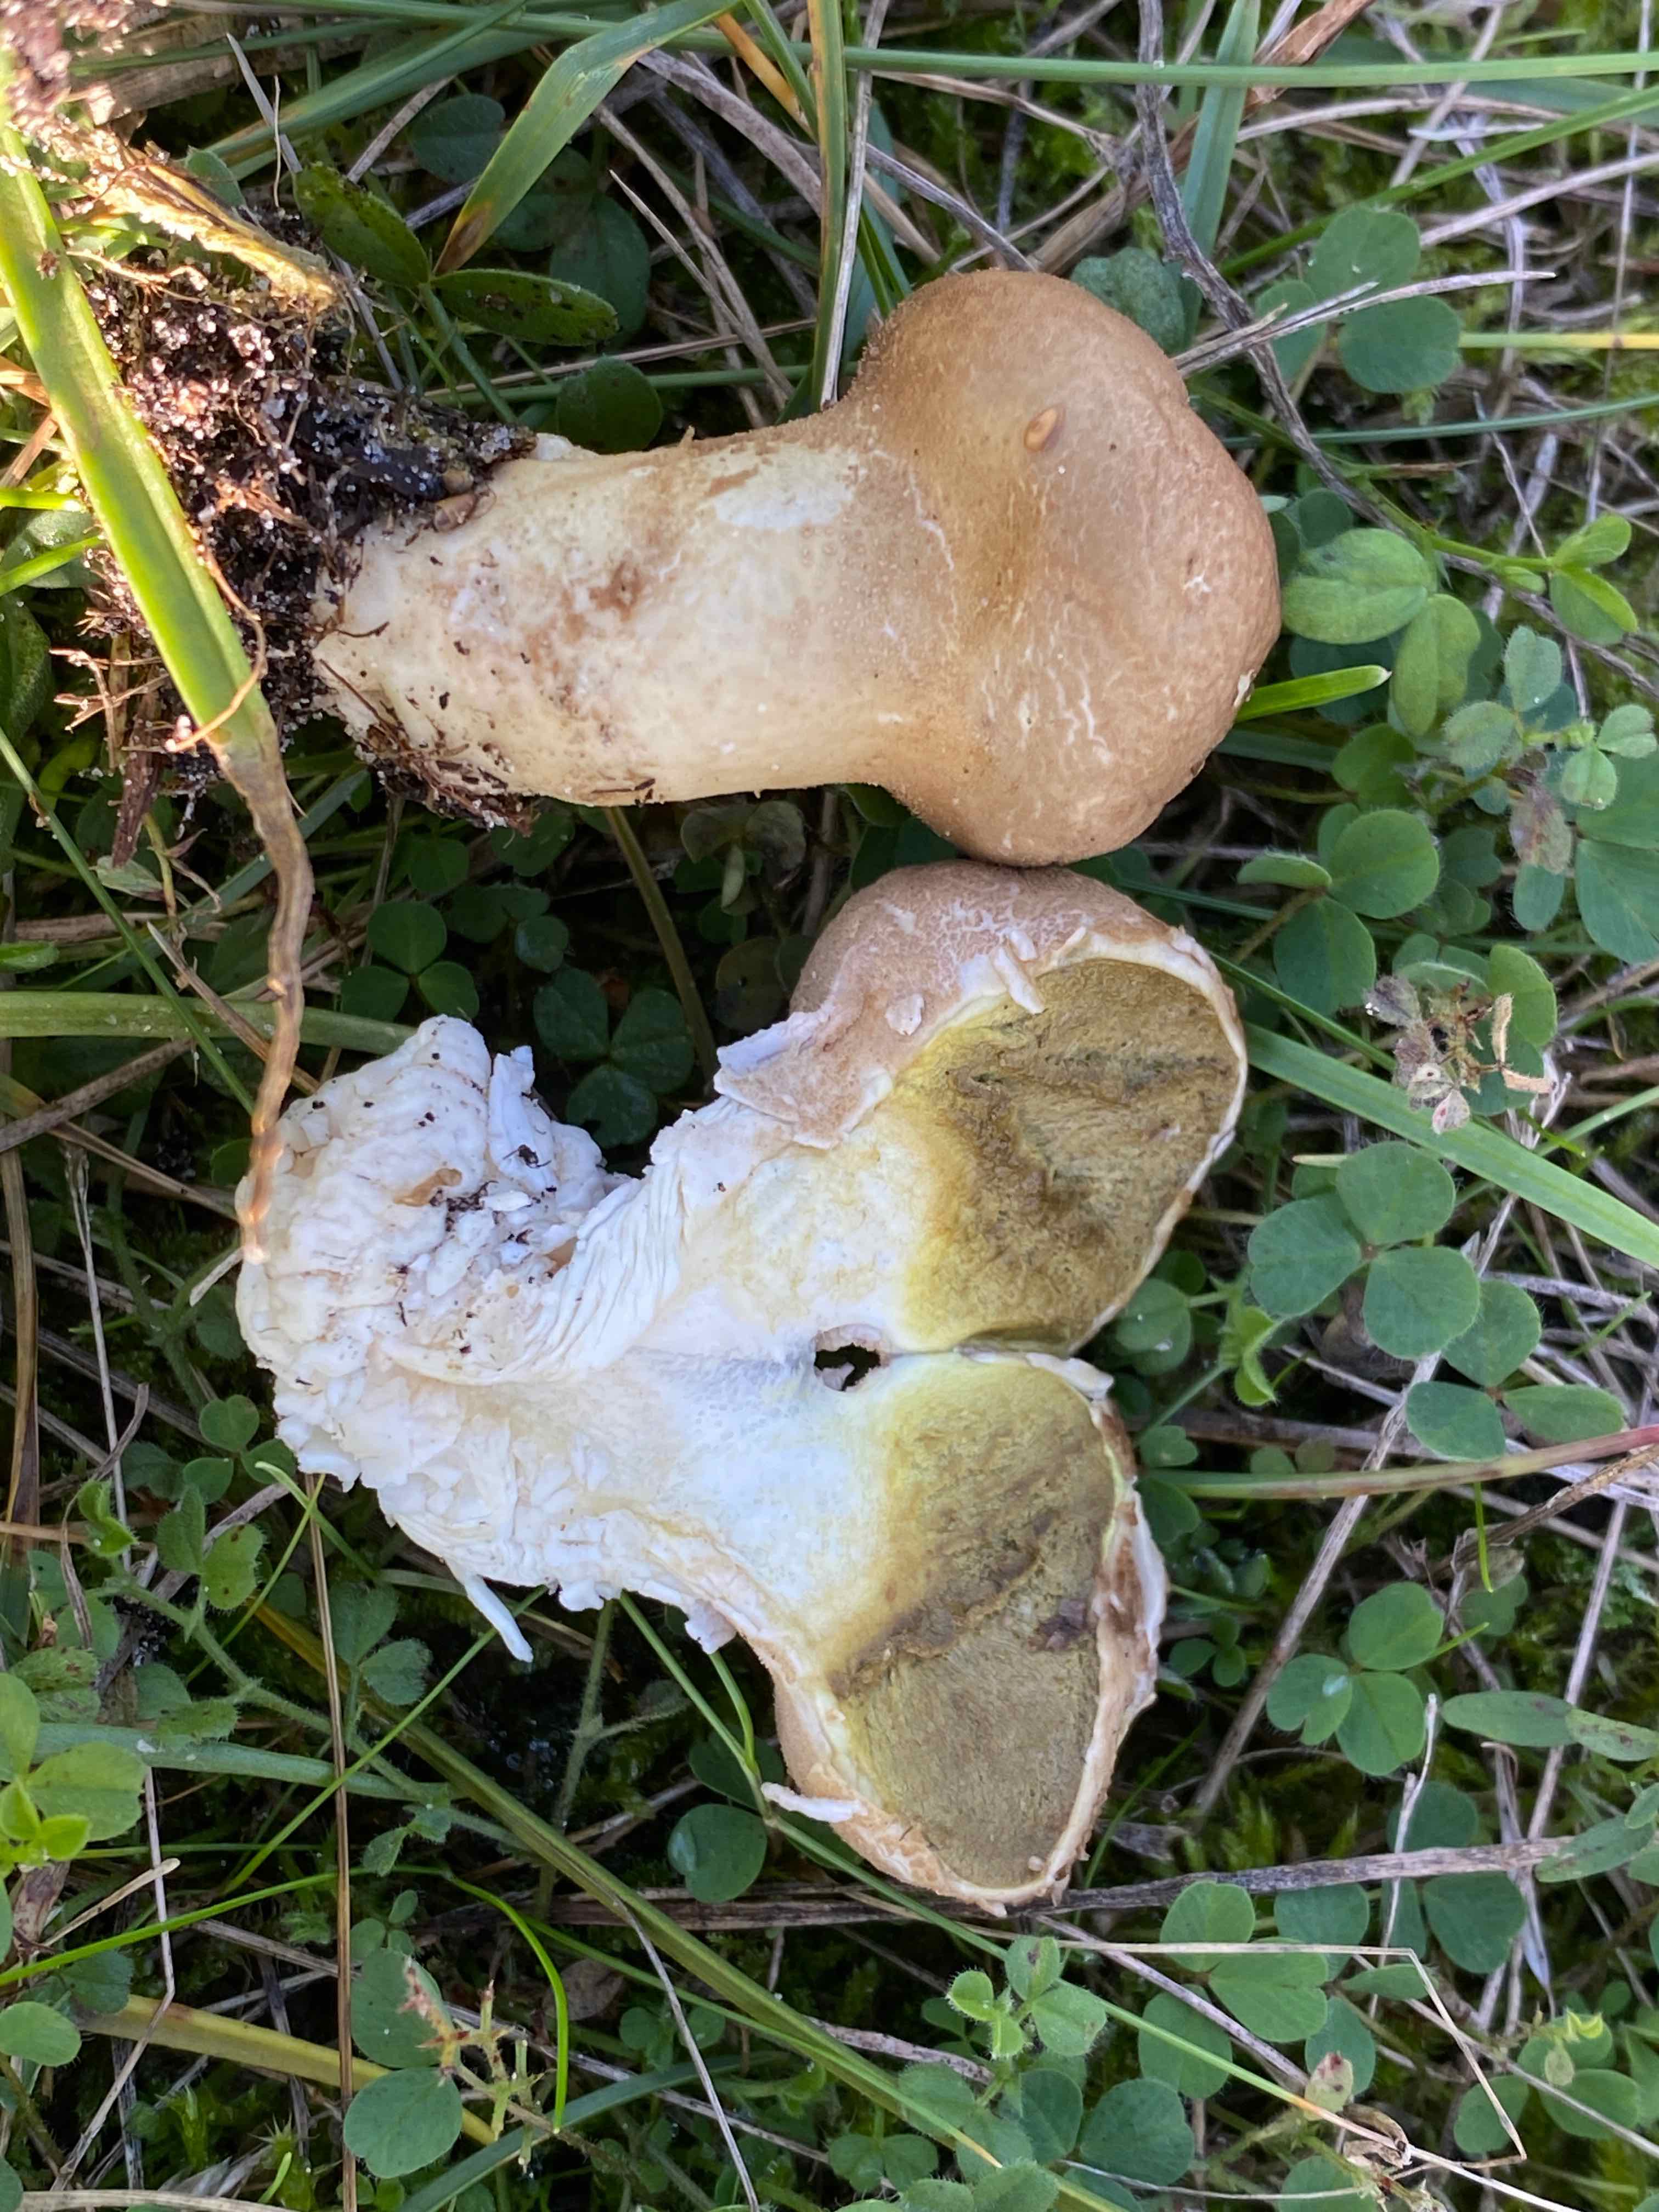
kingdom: Fungi
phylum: Basidiomycota
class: Agaricomycetes
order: Agaricales
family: Lycoperdaceae
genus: Lycoperdon
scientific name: Lycoperdon lividum
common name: mark-støvbold
